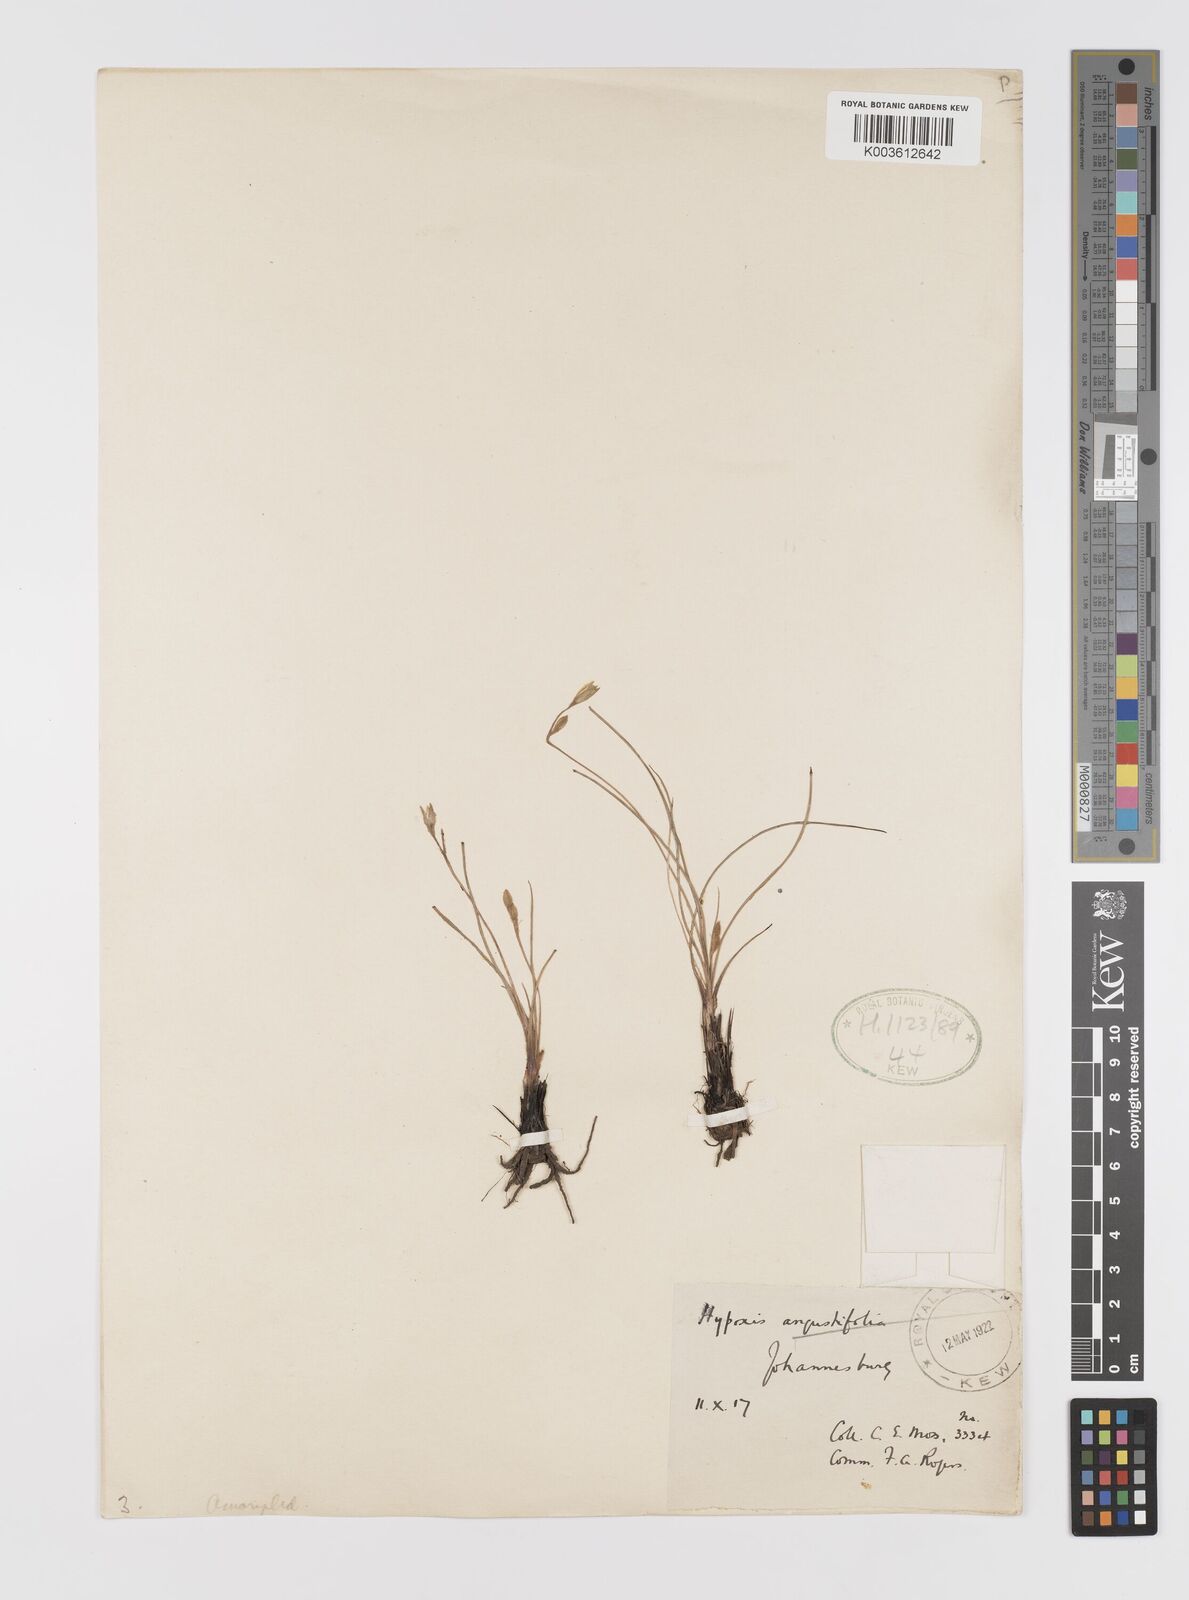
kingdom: Plantae
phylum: Tracheophyta
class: Liliopsida
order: Asparagales
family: Hypoxidaceae
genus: Hypoxis
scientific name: Hypoxis filiformis
